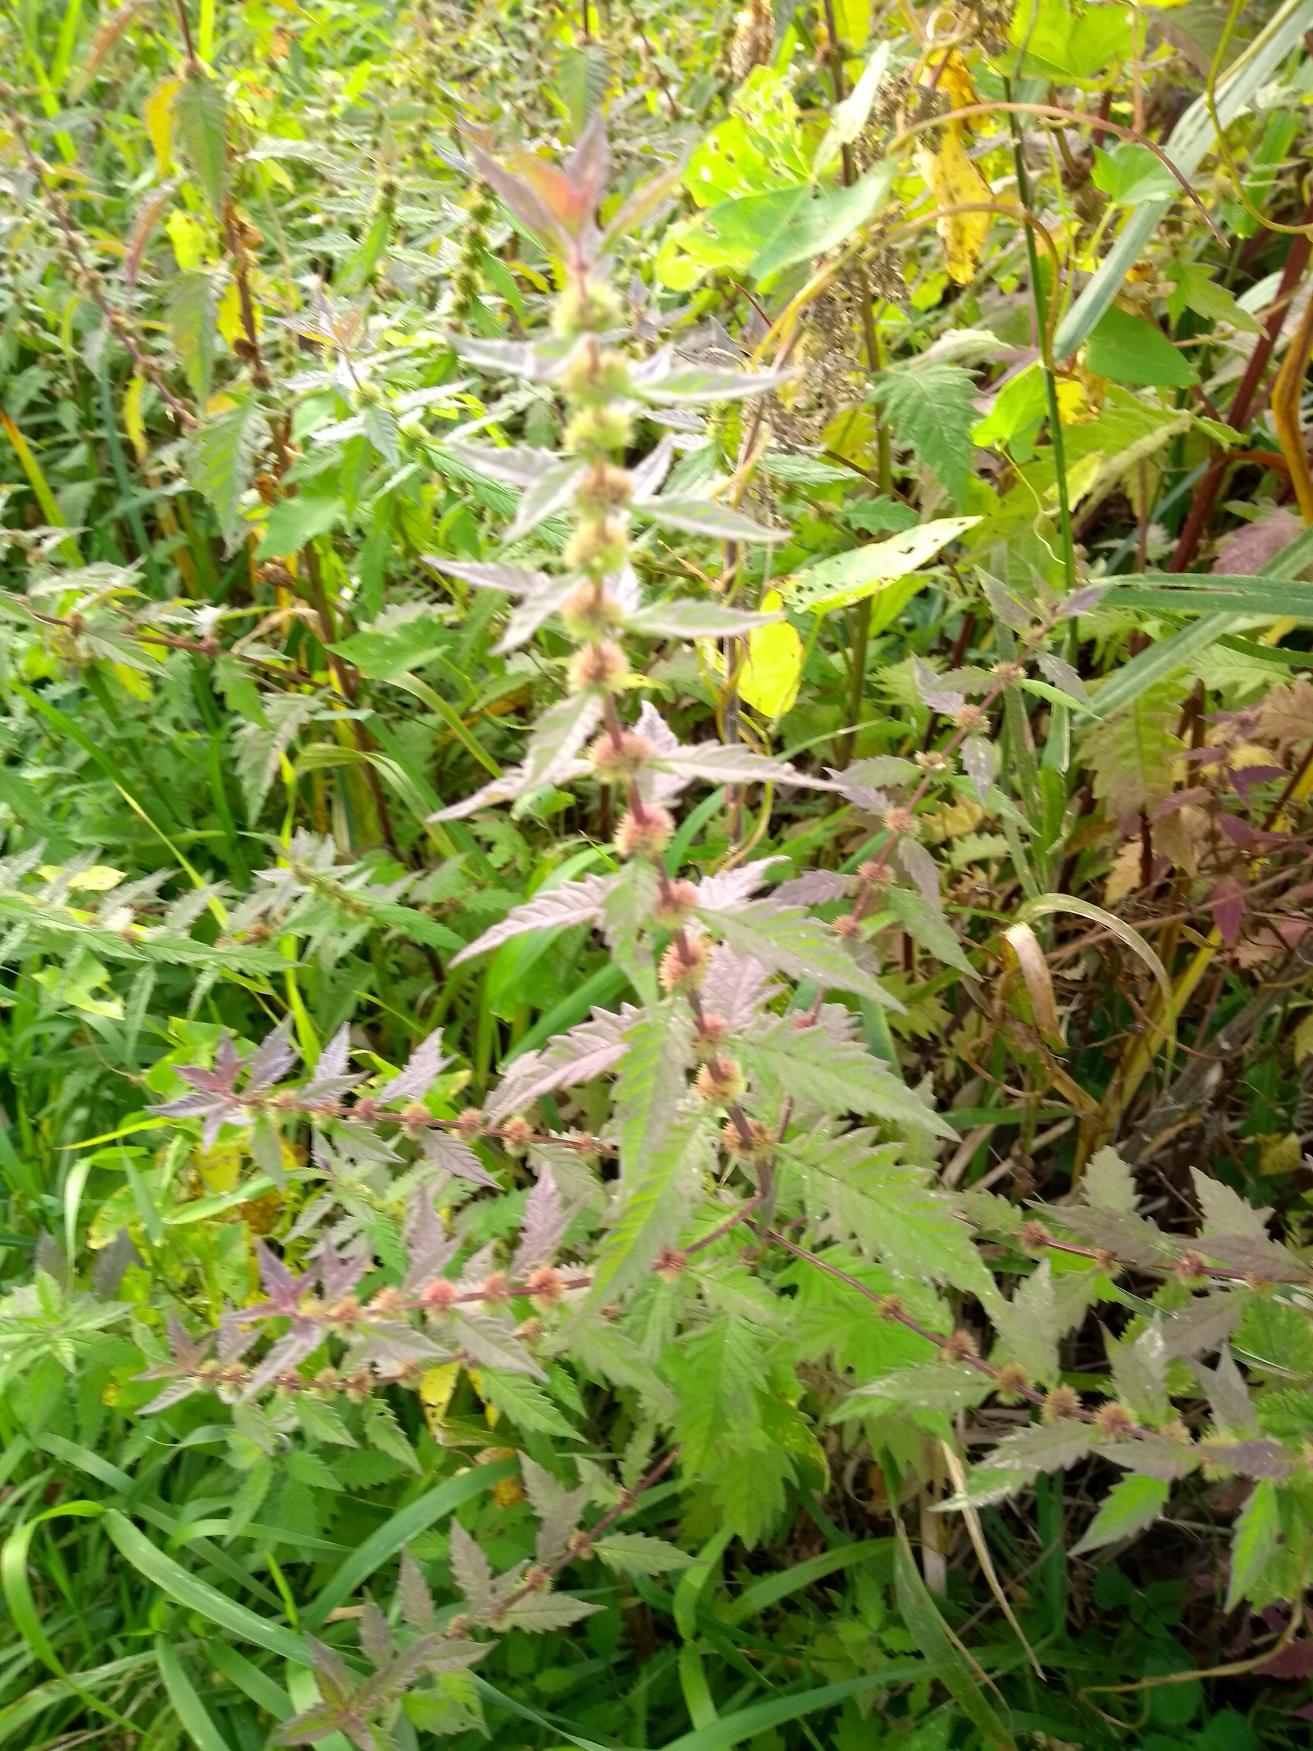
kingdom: Plantae
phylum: Tracheophyta
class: Magnoliopsida
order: Lamiales
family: Lamiaceae
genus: Lycopus
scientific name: Lycopus europaeus
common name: Sværtevæld
